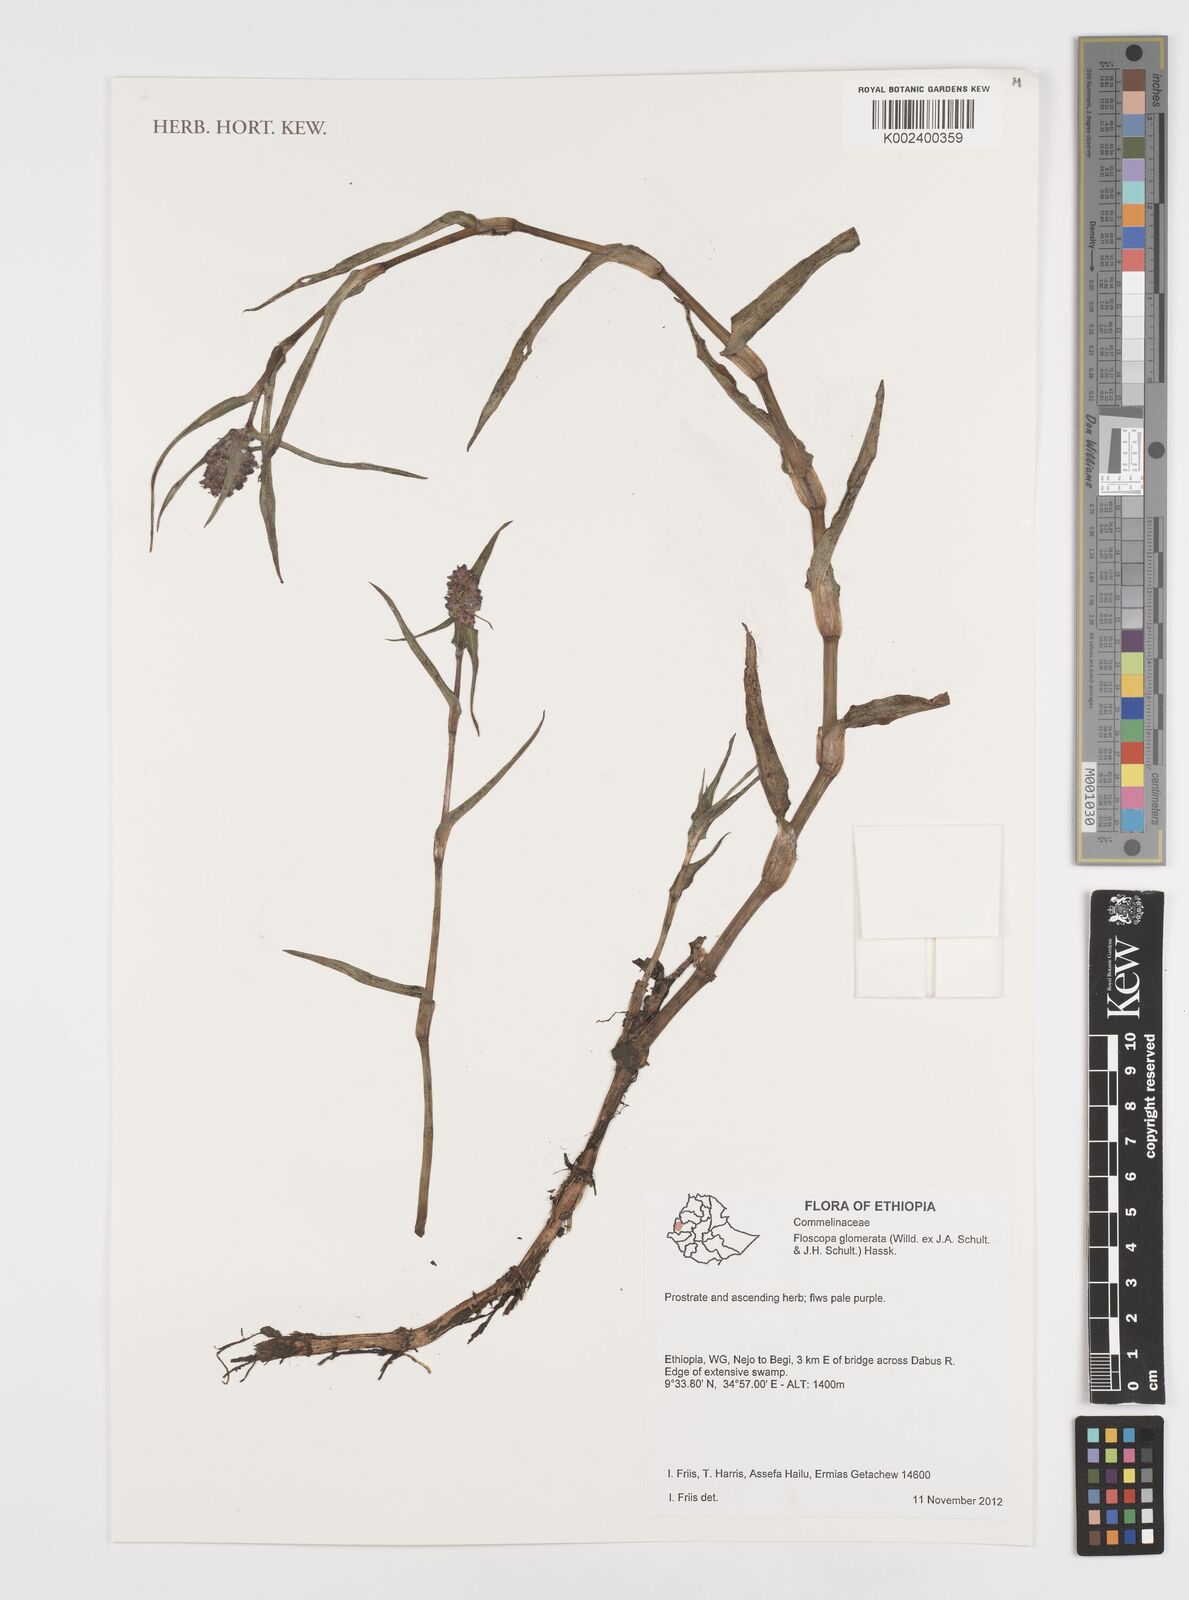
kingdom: Plantae
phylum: Tracheophyta
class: Liliopsida
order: Commelinales
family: Commelinaceae
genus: Floscopa
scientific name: Floscopa glomerata
